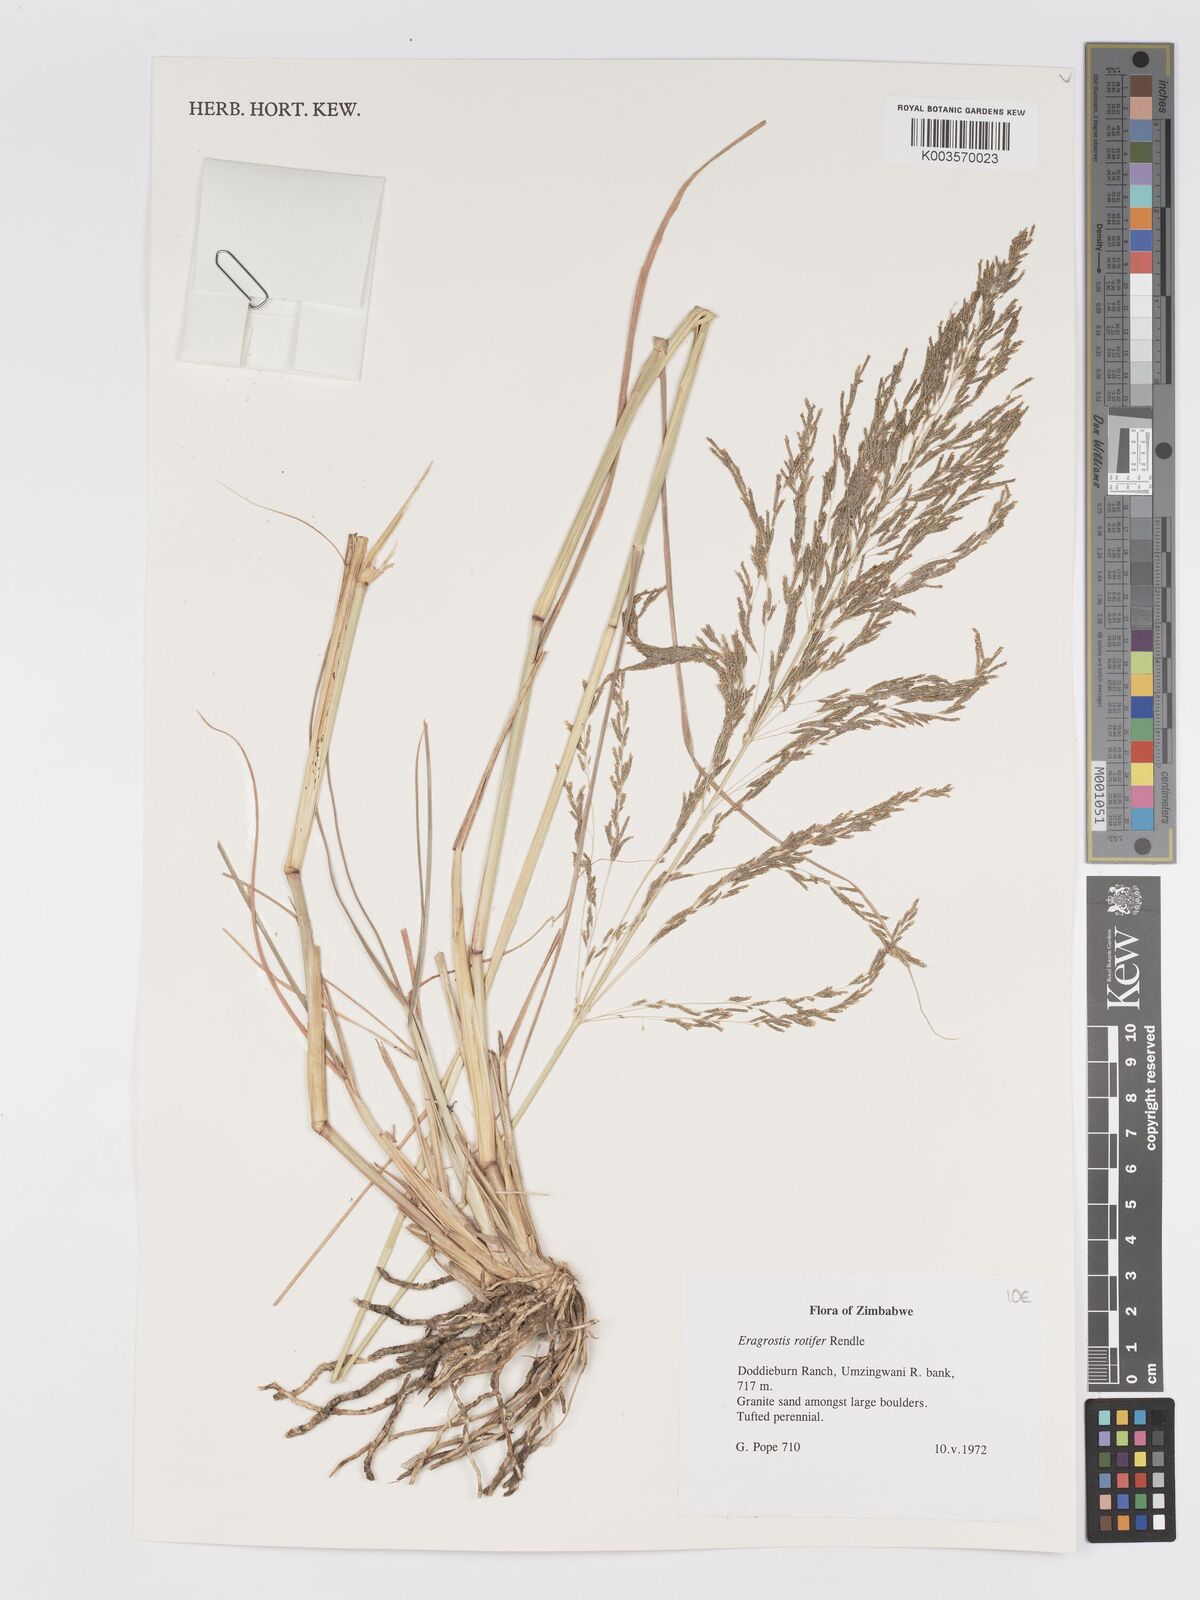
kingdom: Plantae
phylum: Tracheophyta
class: Liliopsida
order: Poales
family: Poaceae
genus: Eragrostis
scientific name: Eragrostis rotifer
